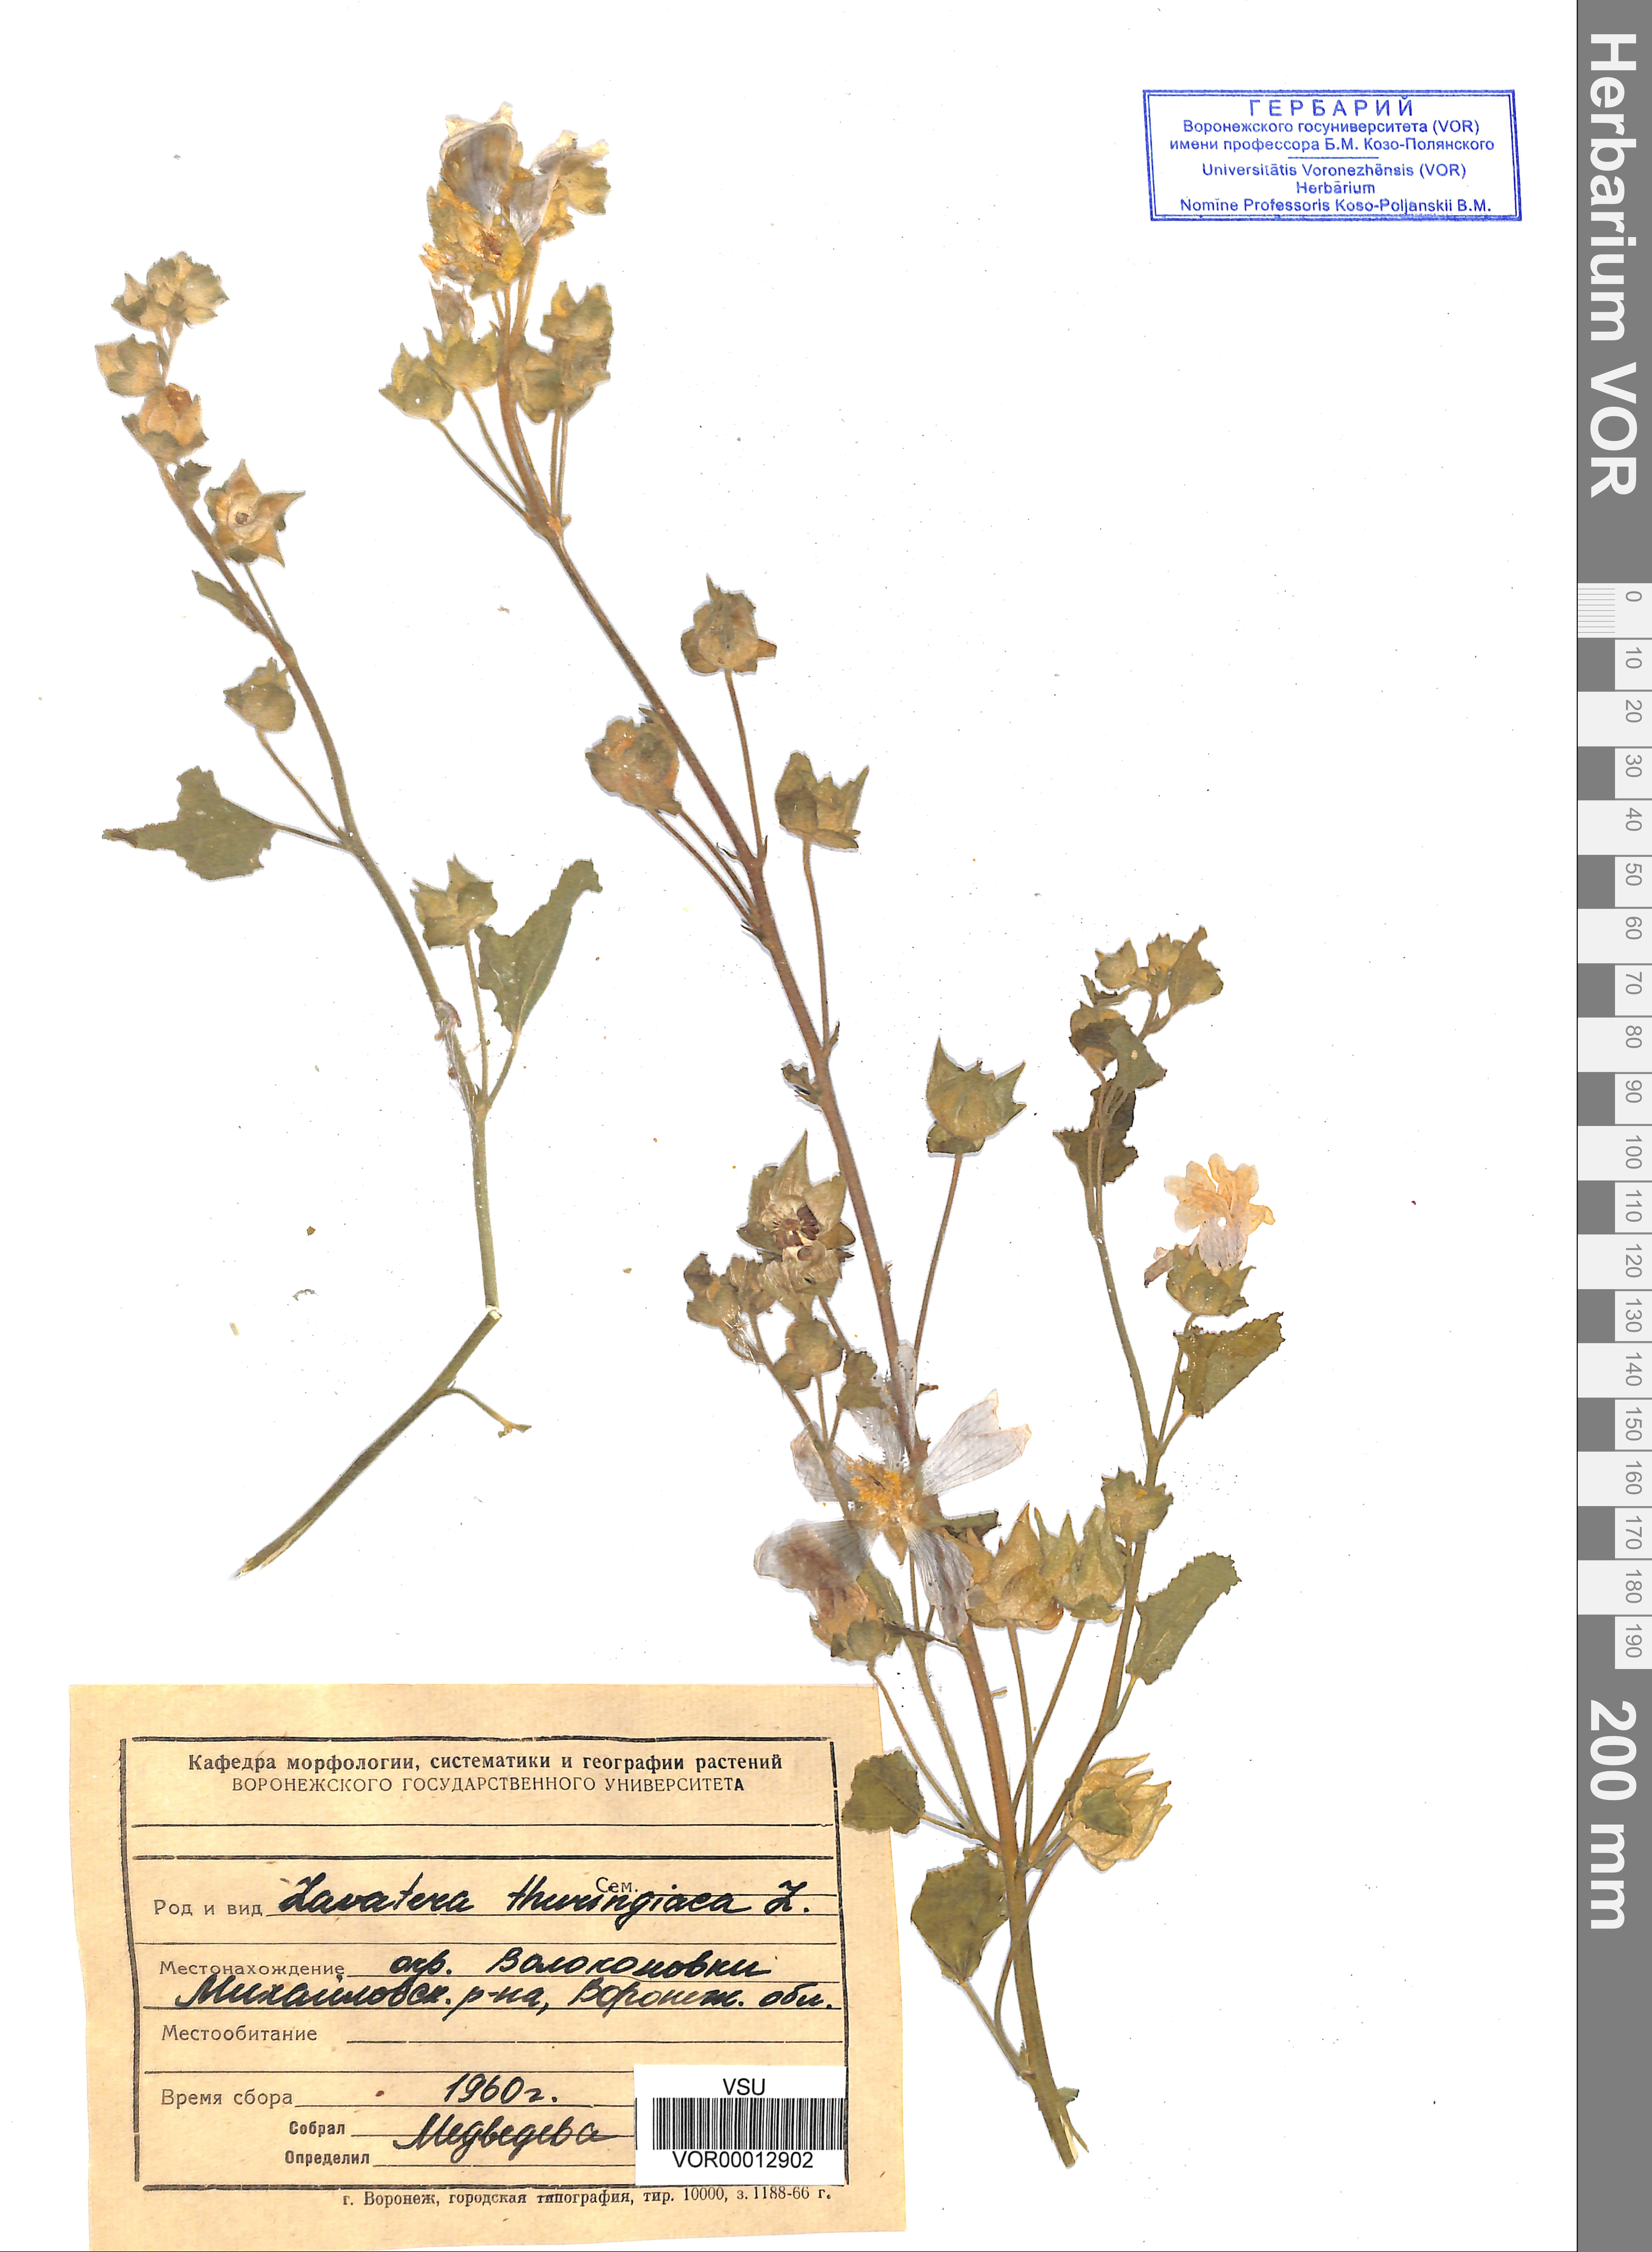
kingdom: Plantae
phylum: Tracheophyta
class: Magnoliopsida
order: Malvales
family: Malvaceae
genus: Malva
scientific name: Malva thuringiaca
